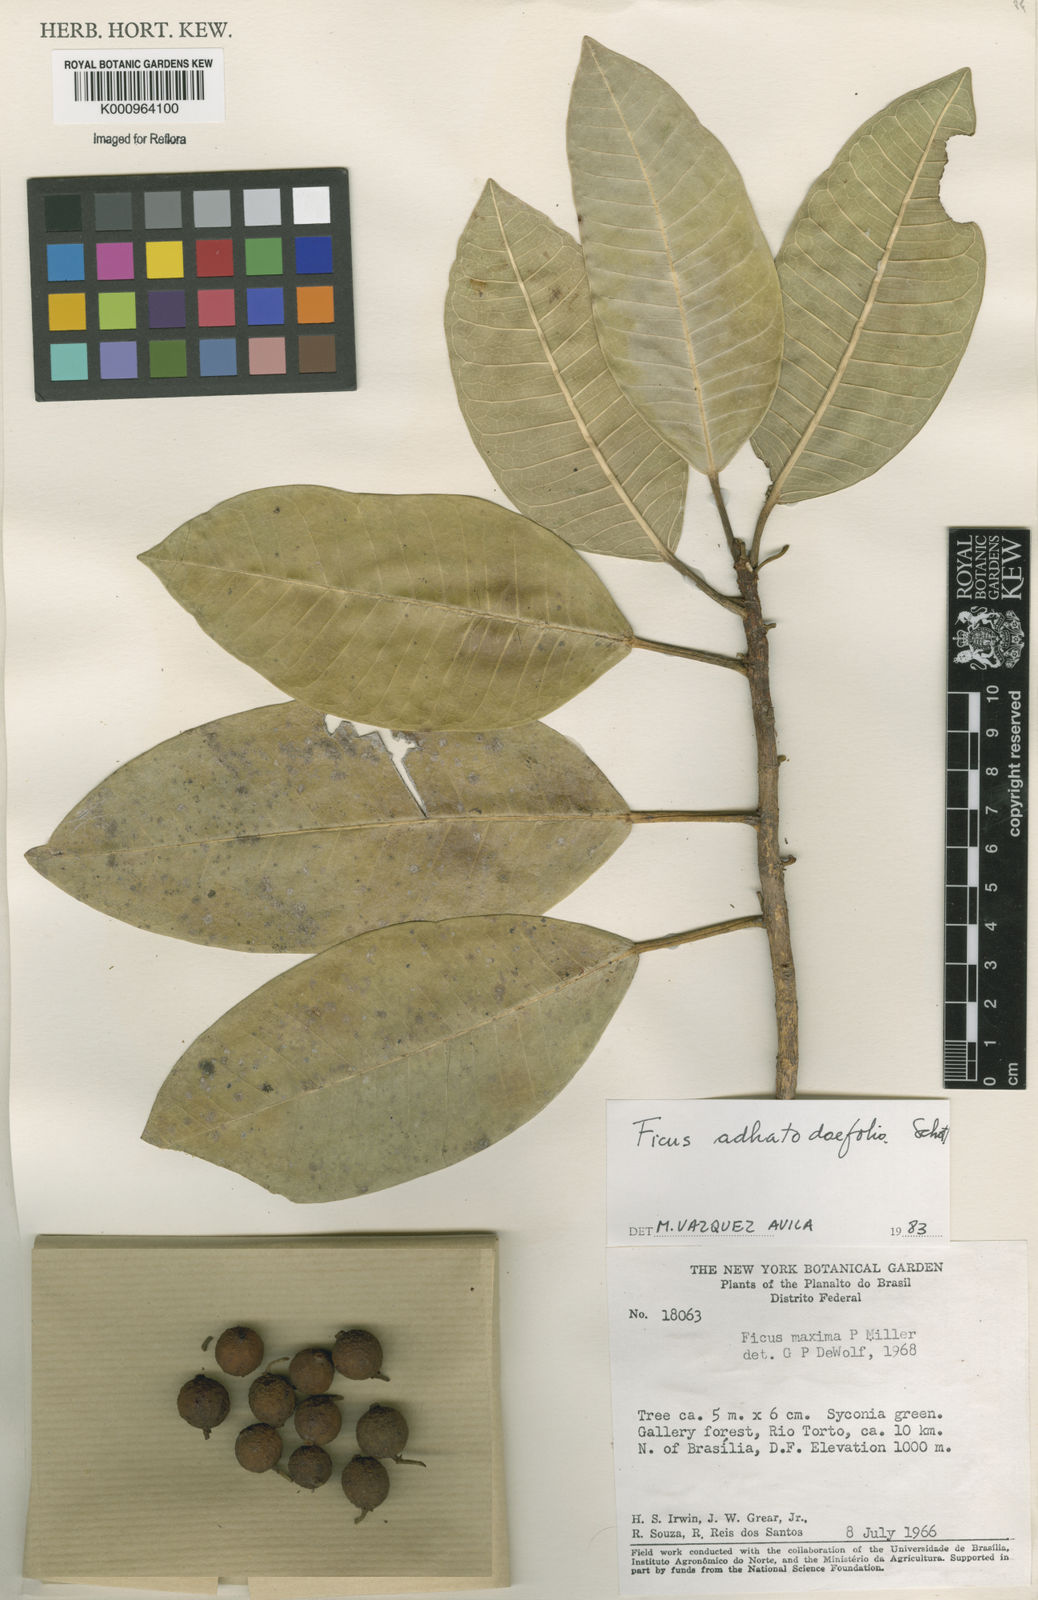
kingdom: Plantae
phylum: Tracheophyta
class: Magnoliopsida
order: Rosales
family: Moraceae
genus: Ficus
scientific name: Ficus
